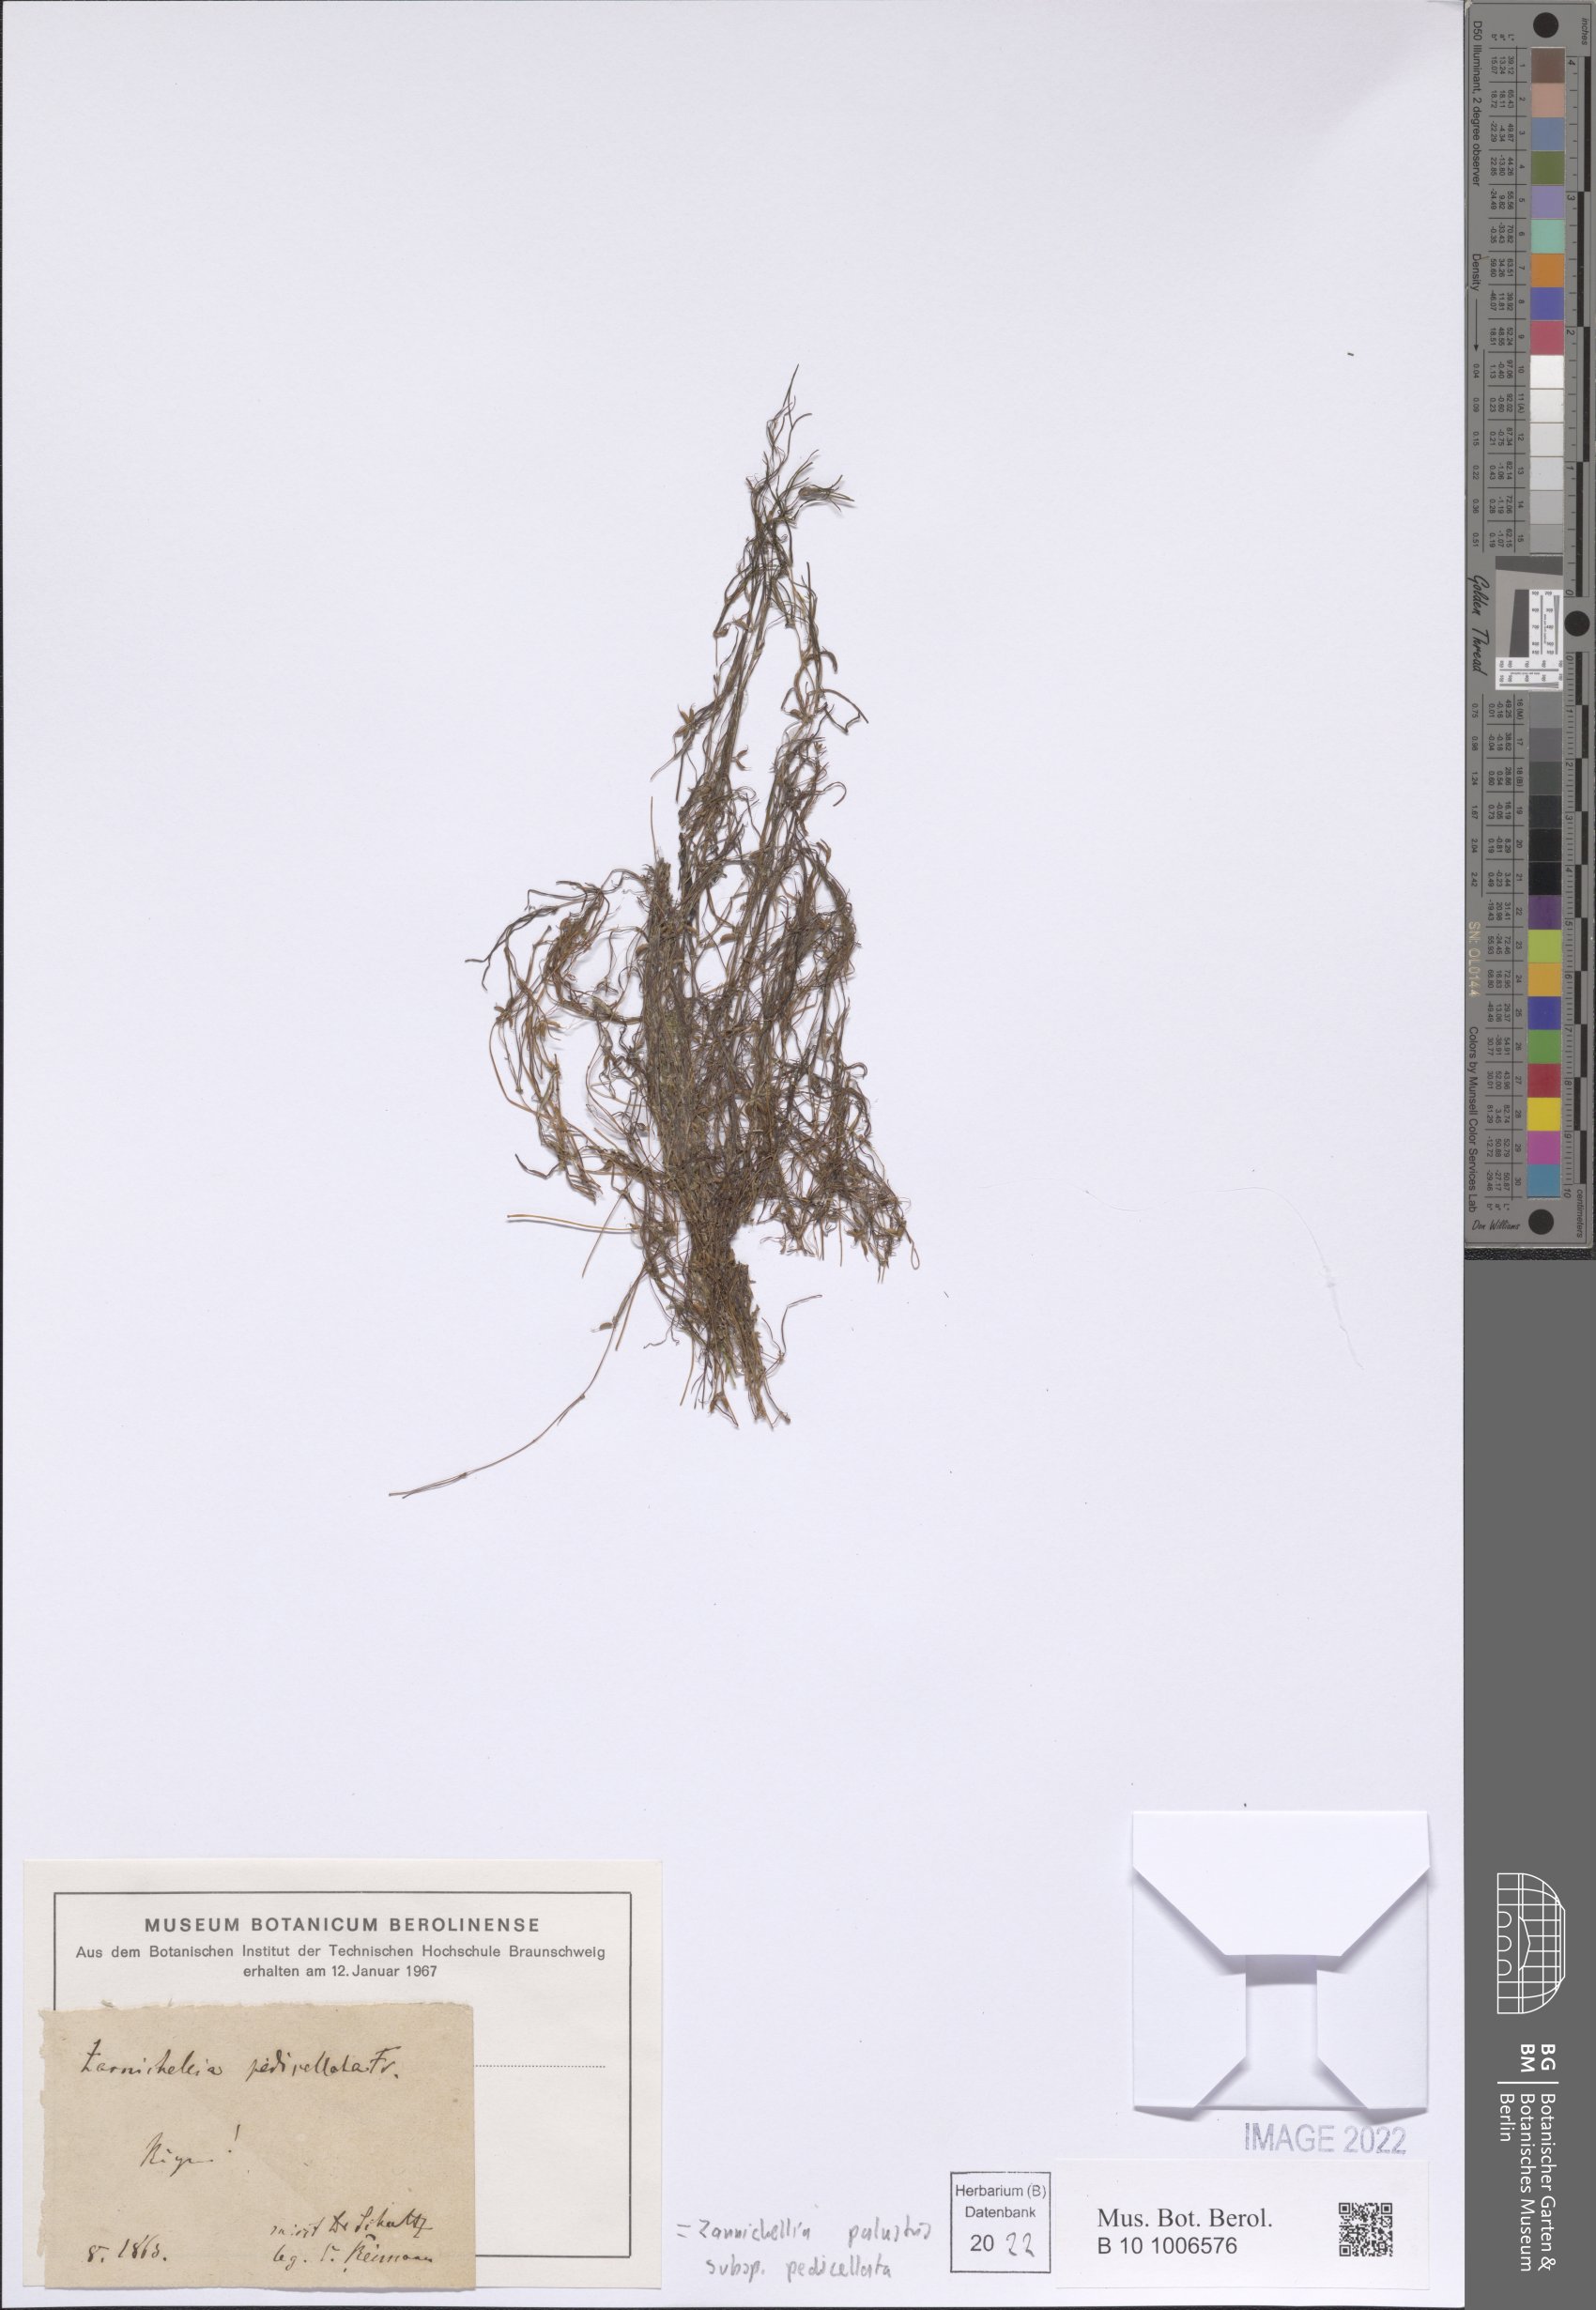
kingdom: Plantae
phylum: Tracheophyta
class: Liliopsida
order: Alismatales
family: Potamogetonaceae
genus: Zannichellia
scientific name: Zannichellia palustris
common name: Horned pondweed
